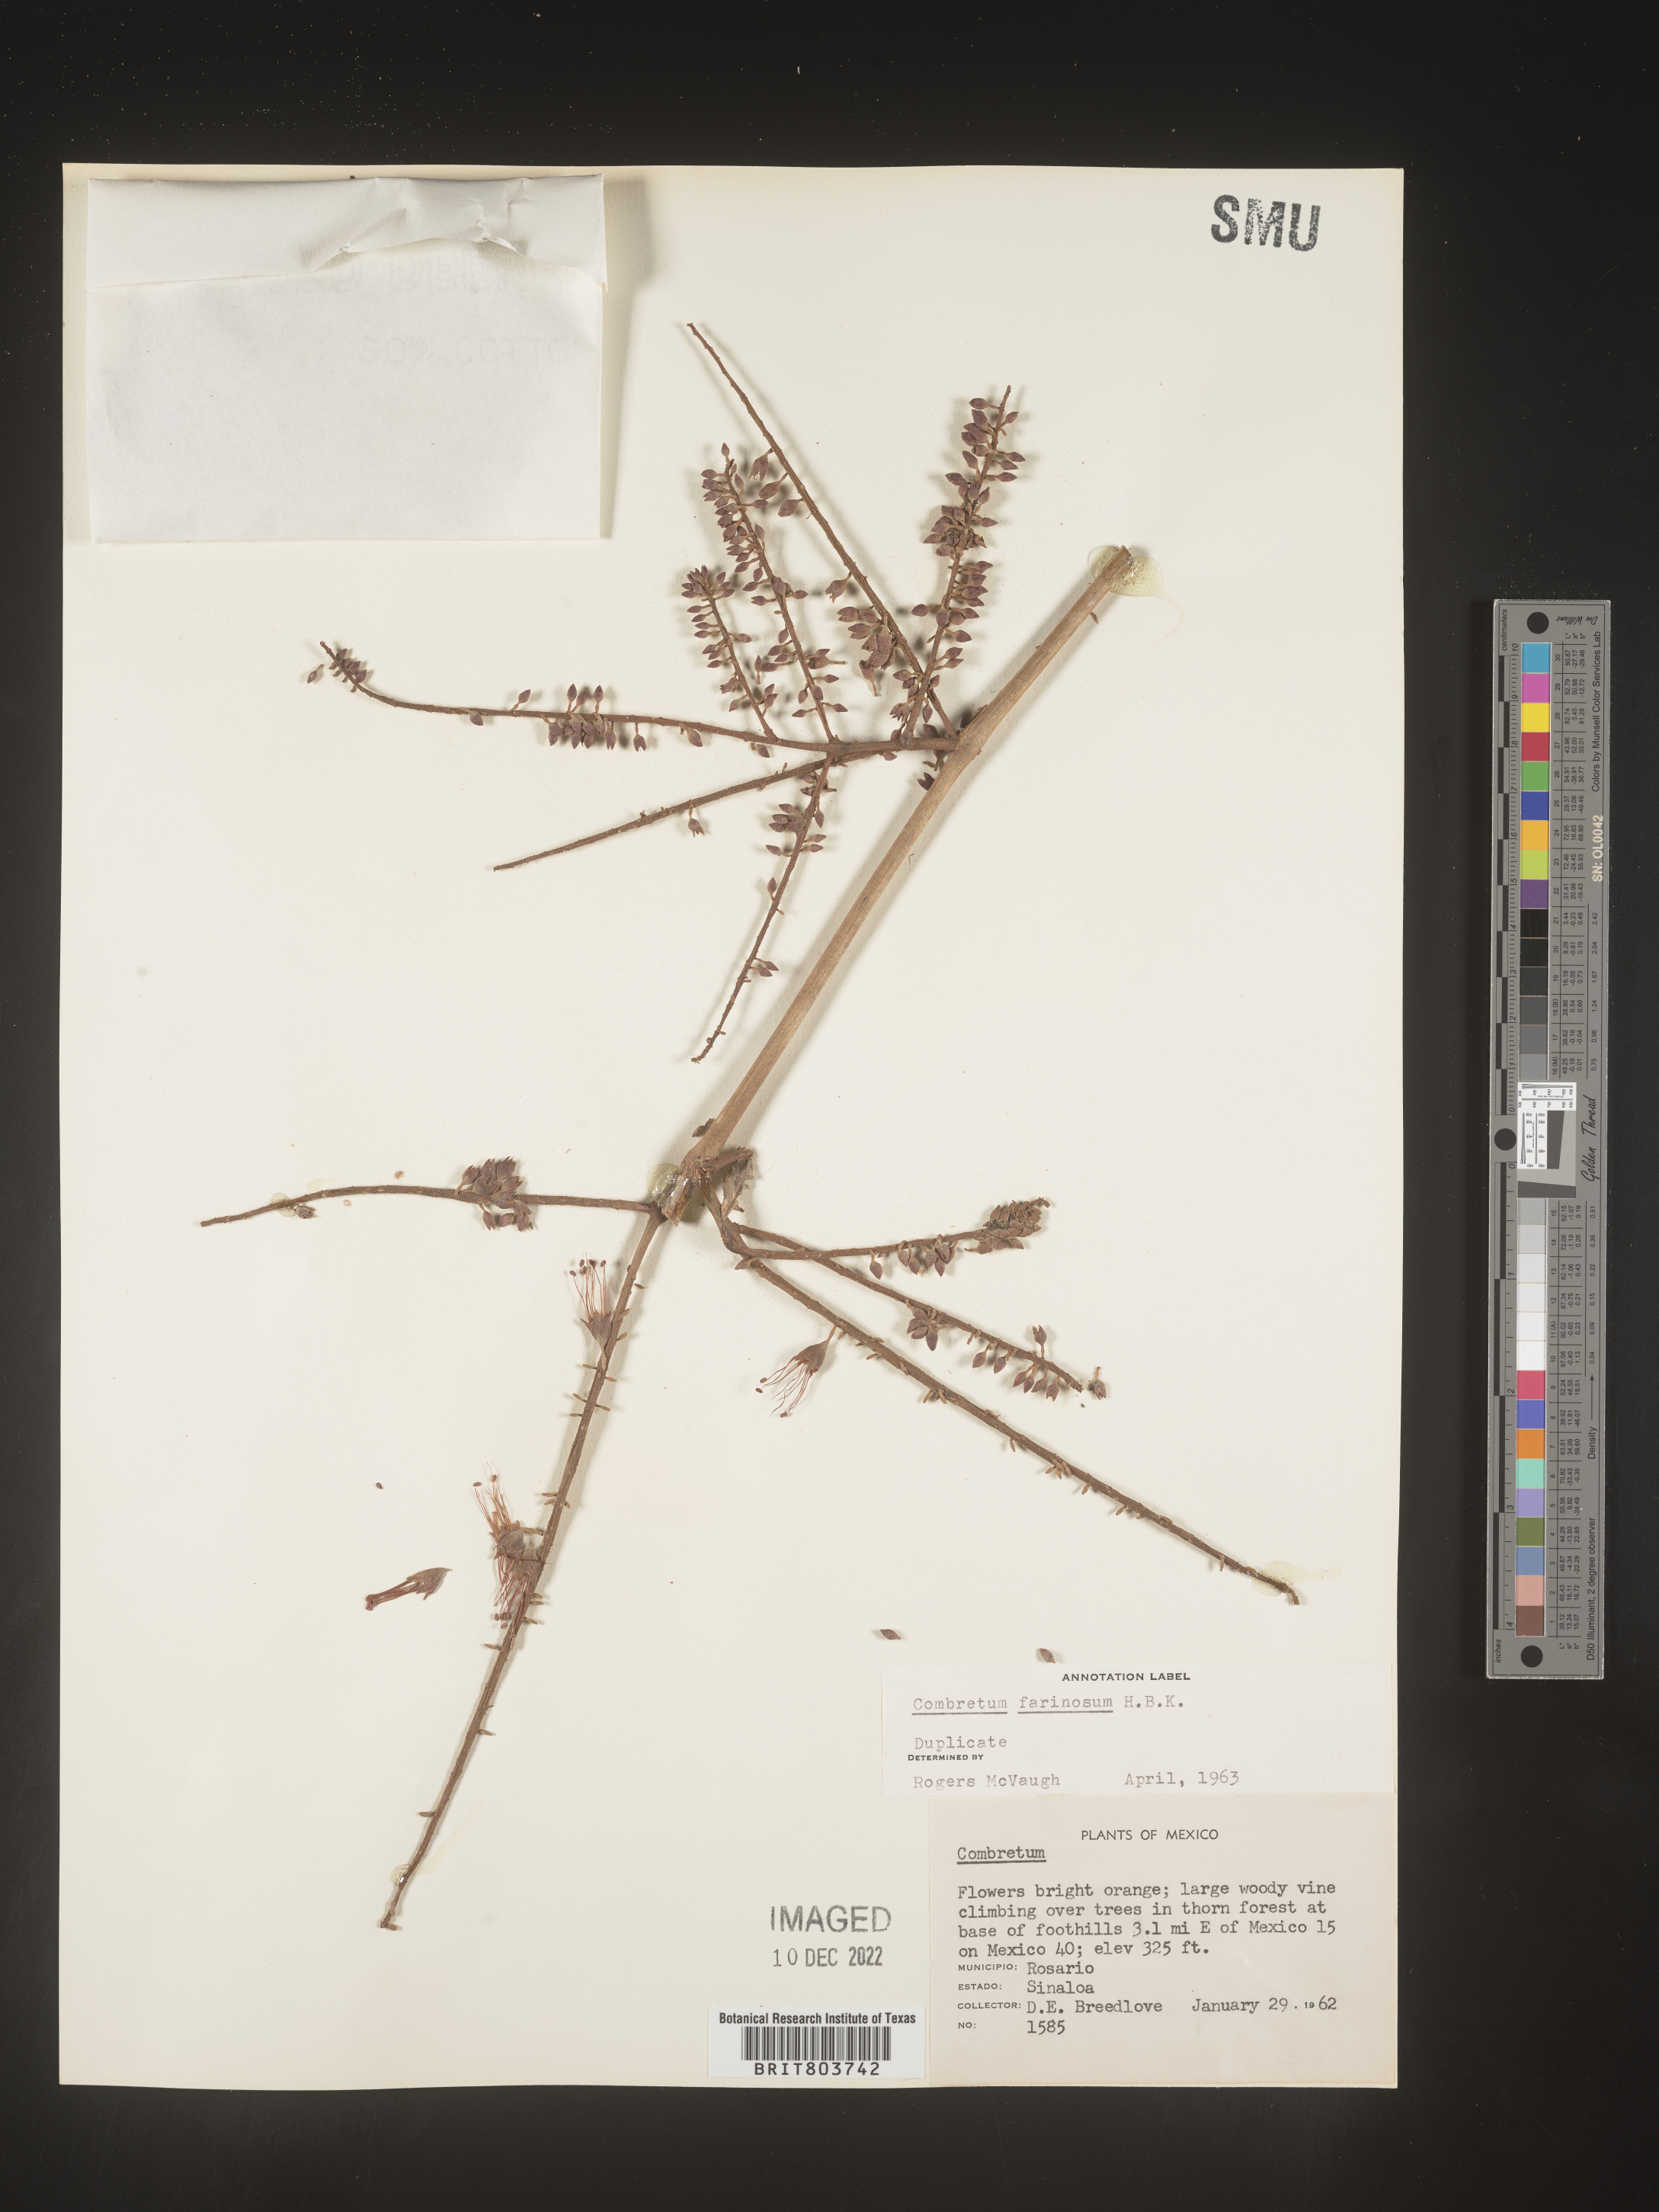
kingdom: Plantae
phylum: Tracheophyta
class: Magnoliopsida
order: Myrtales
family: Combretaceae
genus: Combretum
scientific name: Combretum
